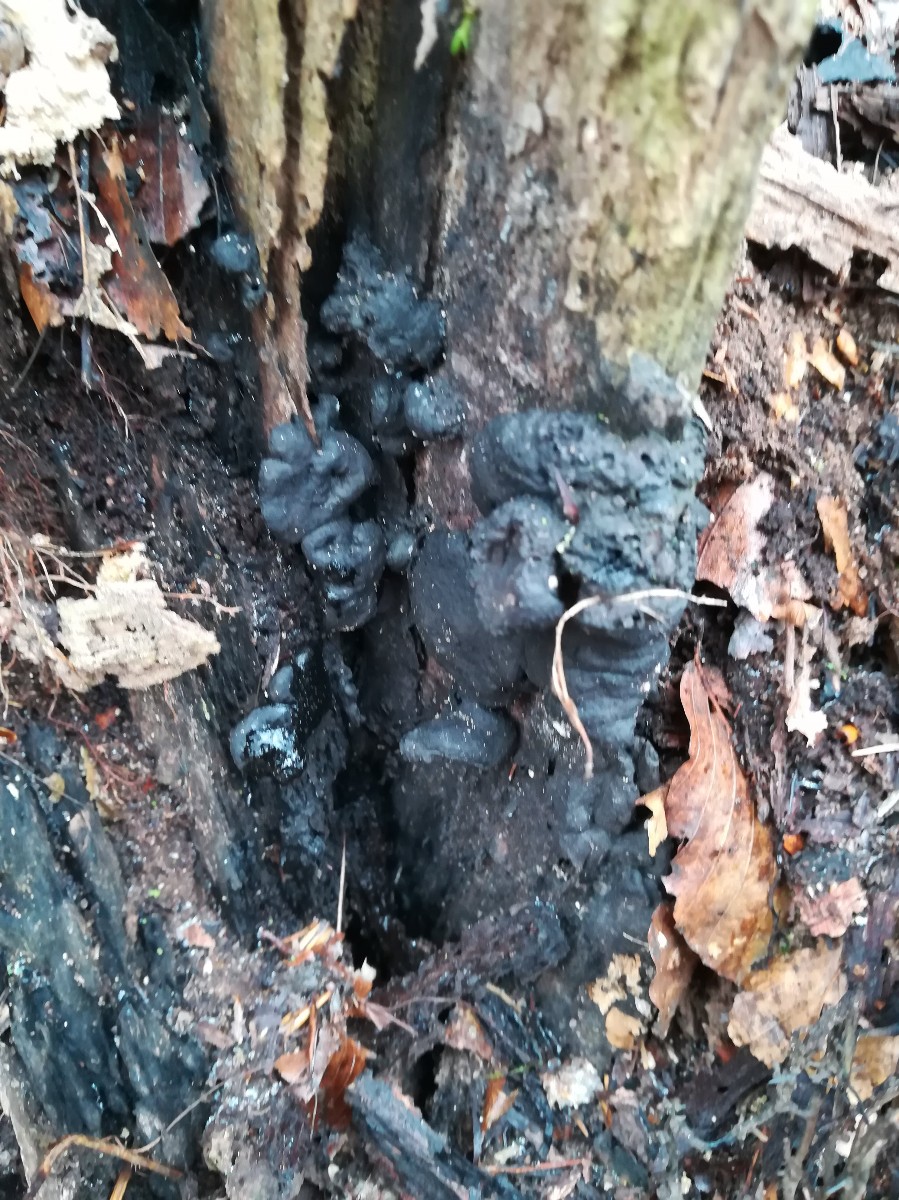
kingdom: Fungi
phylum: Ascomycota
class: Sordariomycetes
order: Xylariales
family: Xylariaceae
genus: Kretzschmaria
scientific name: Kretzschmaria deusta
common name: stor kulsvamp
